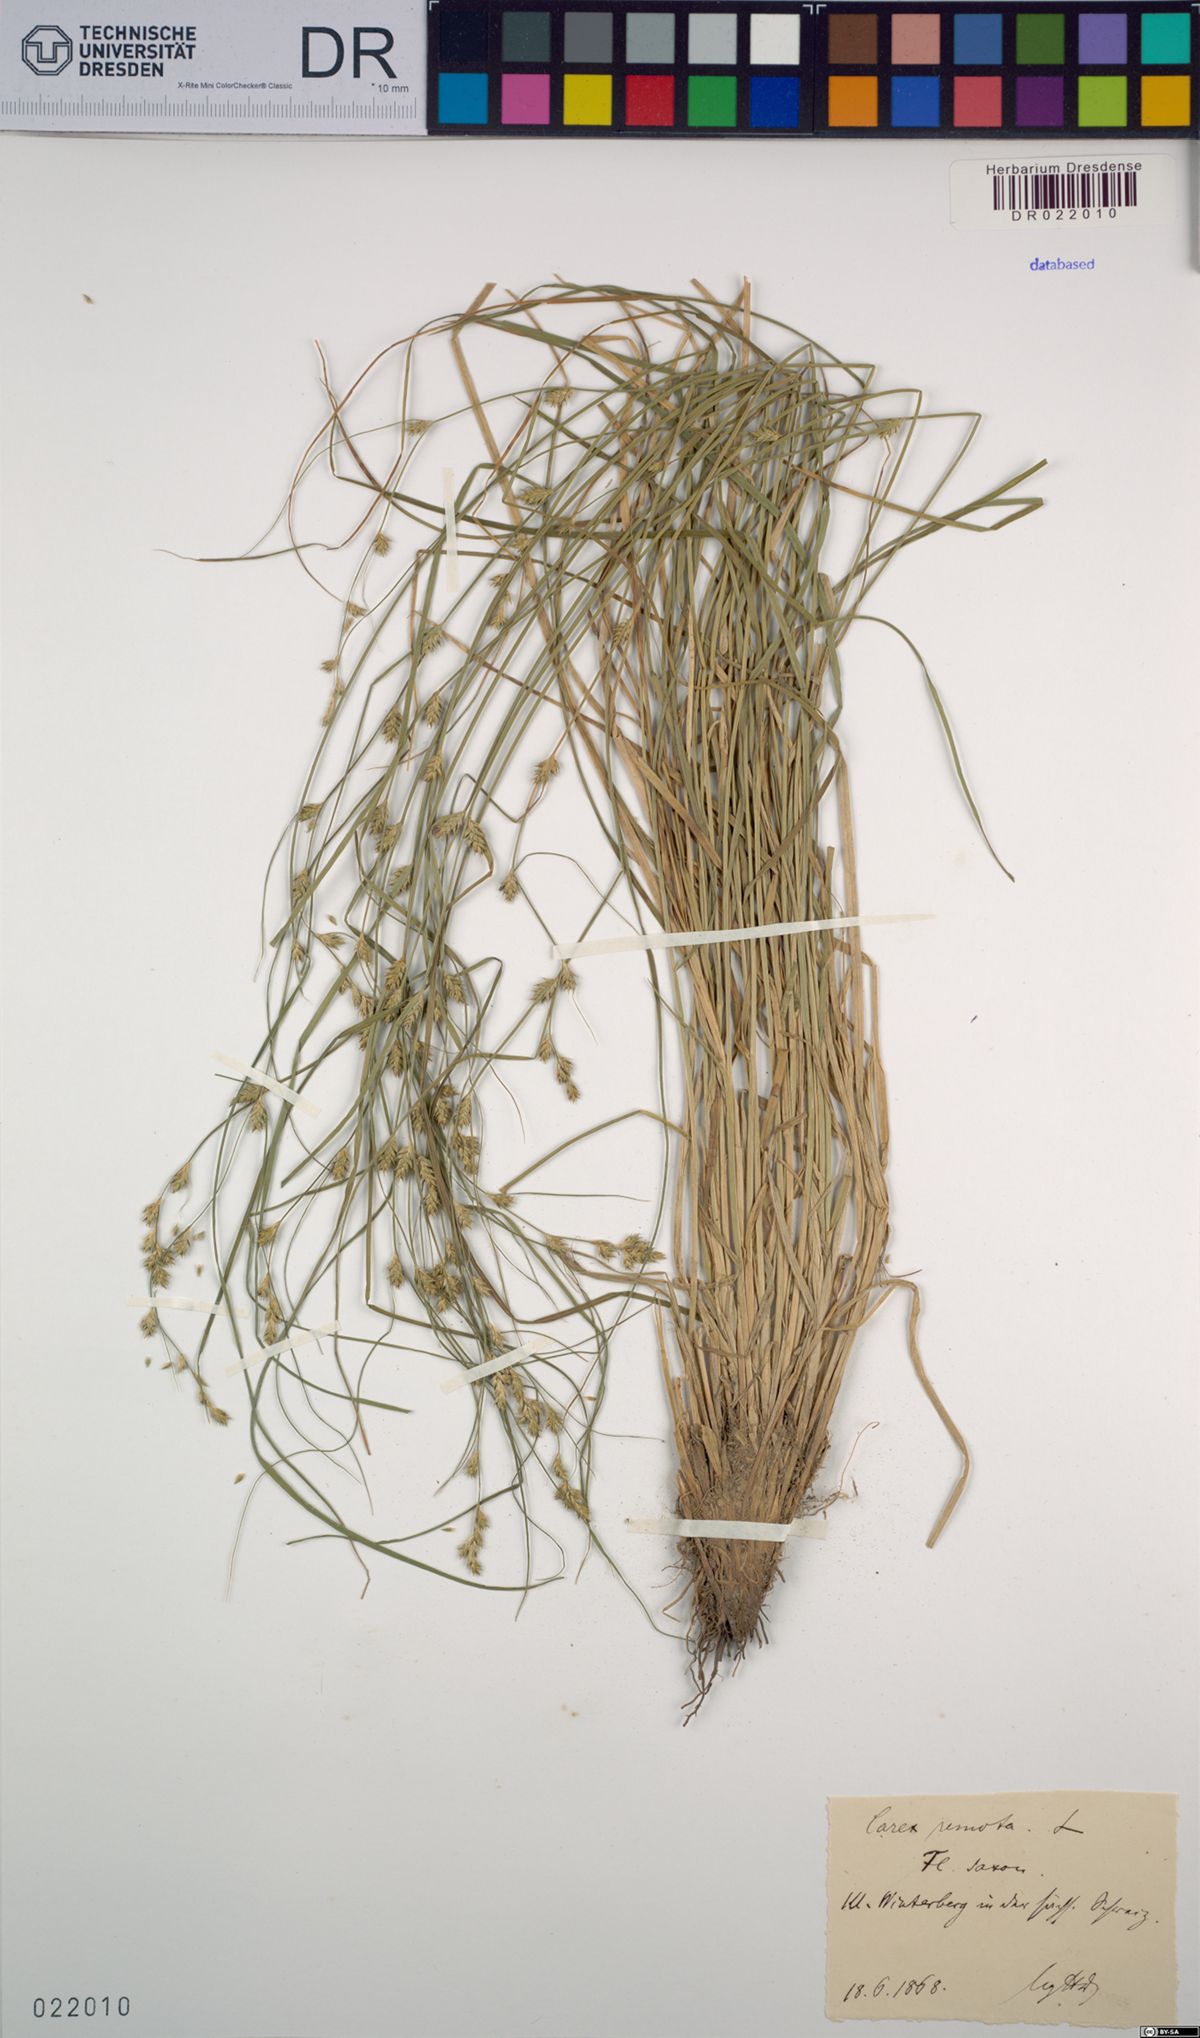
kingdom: Plantae
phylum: Tracheophyta
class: Liliopsida
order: Poales
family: Cyperaceae
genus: Carex
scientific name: Carex remota
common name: Remote sedge
